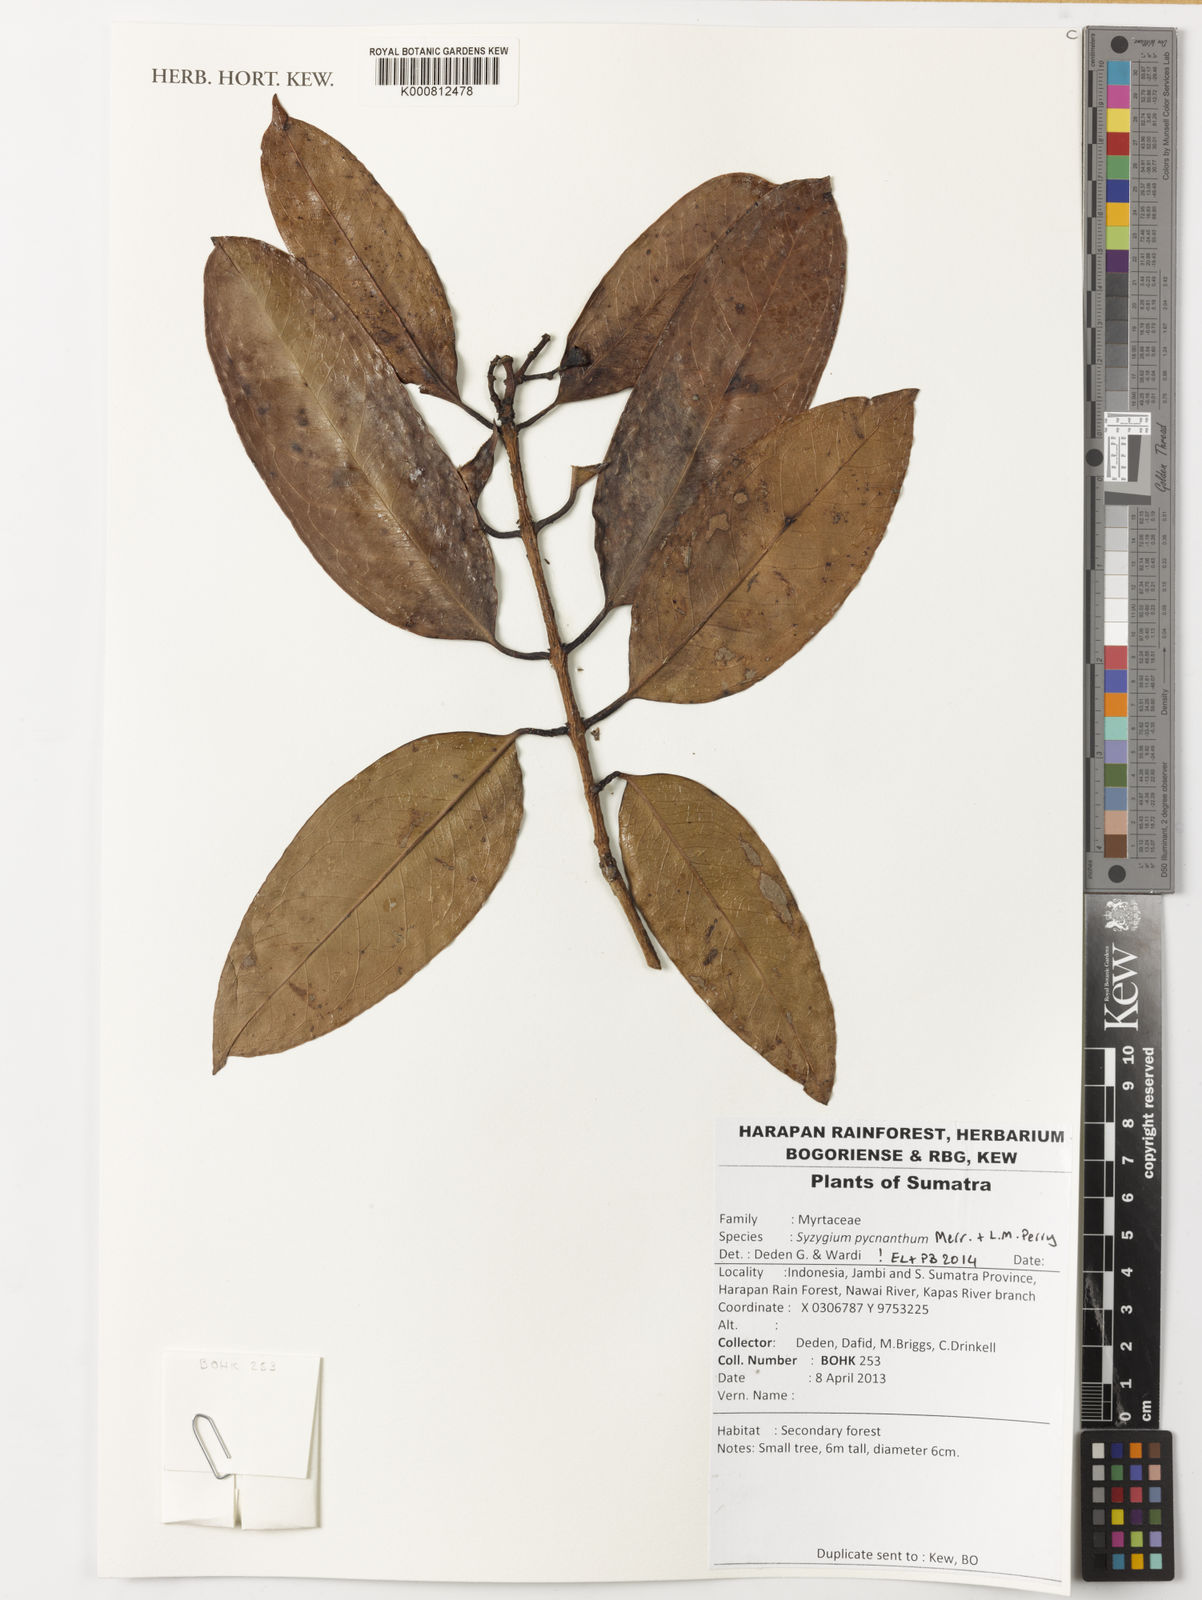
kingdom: Plantae
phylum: Tracheophyta
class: Magnoliopsida
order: Myrtales
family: Myrtaceae
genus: Syzygium
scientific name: Syzygium pycnanthum
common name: Wild rose
